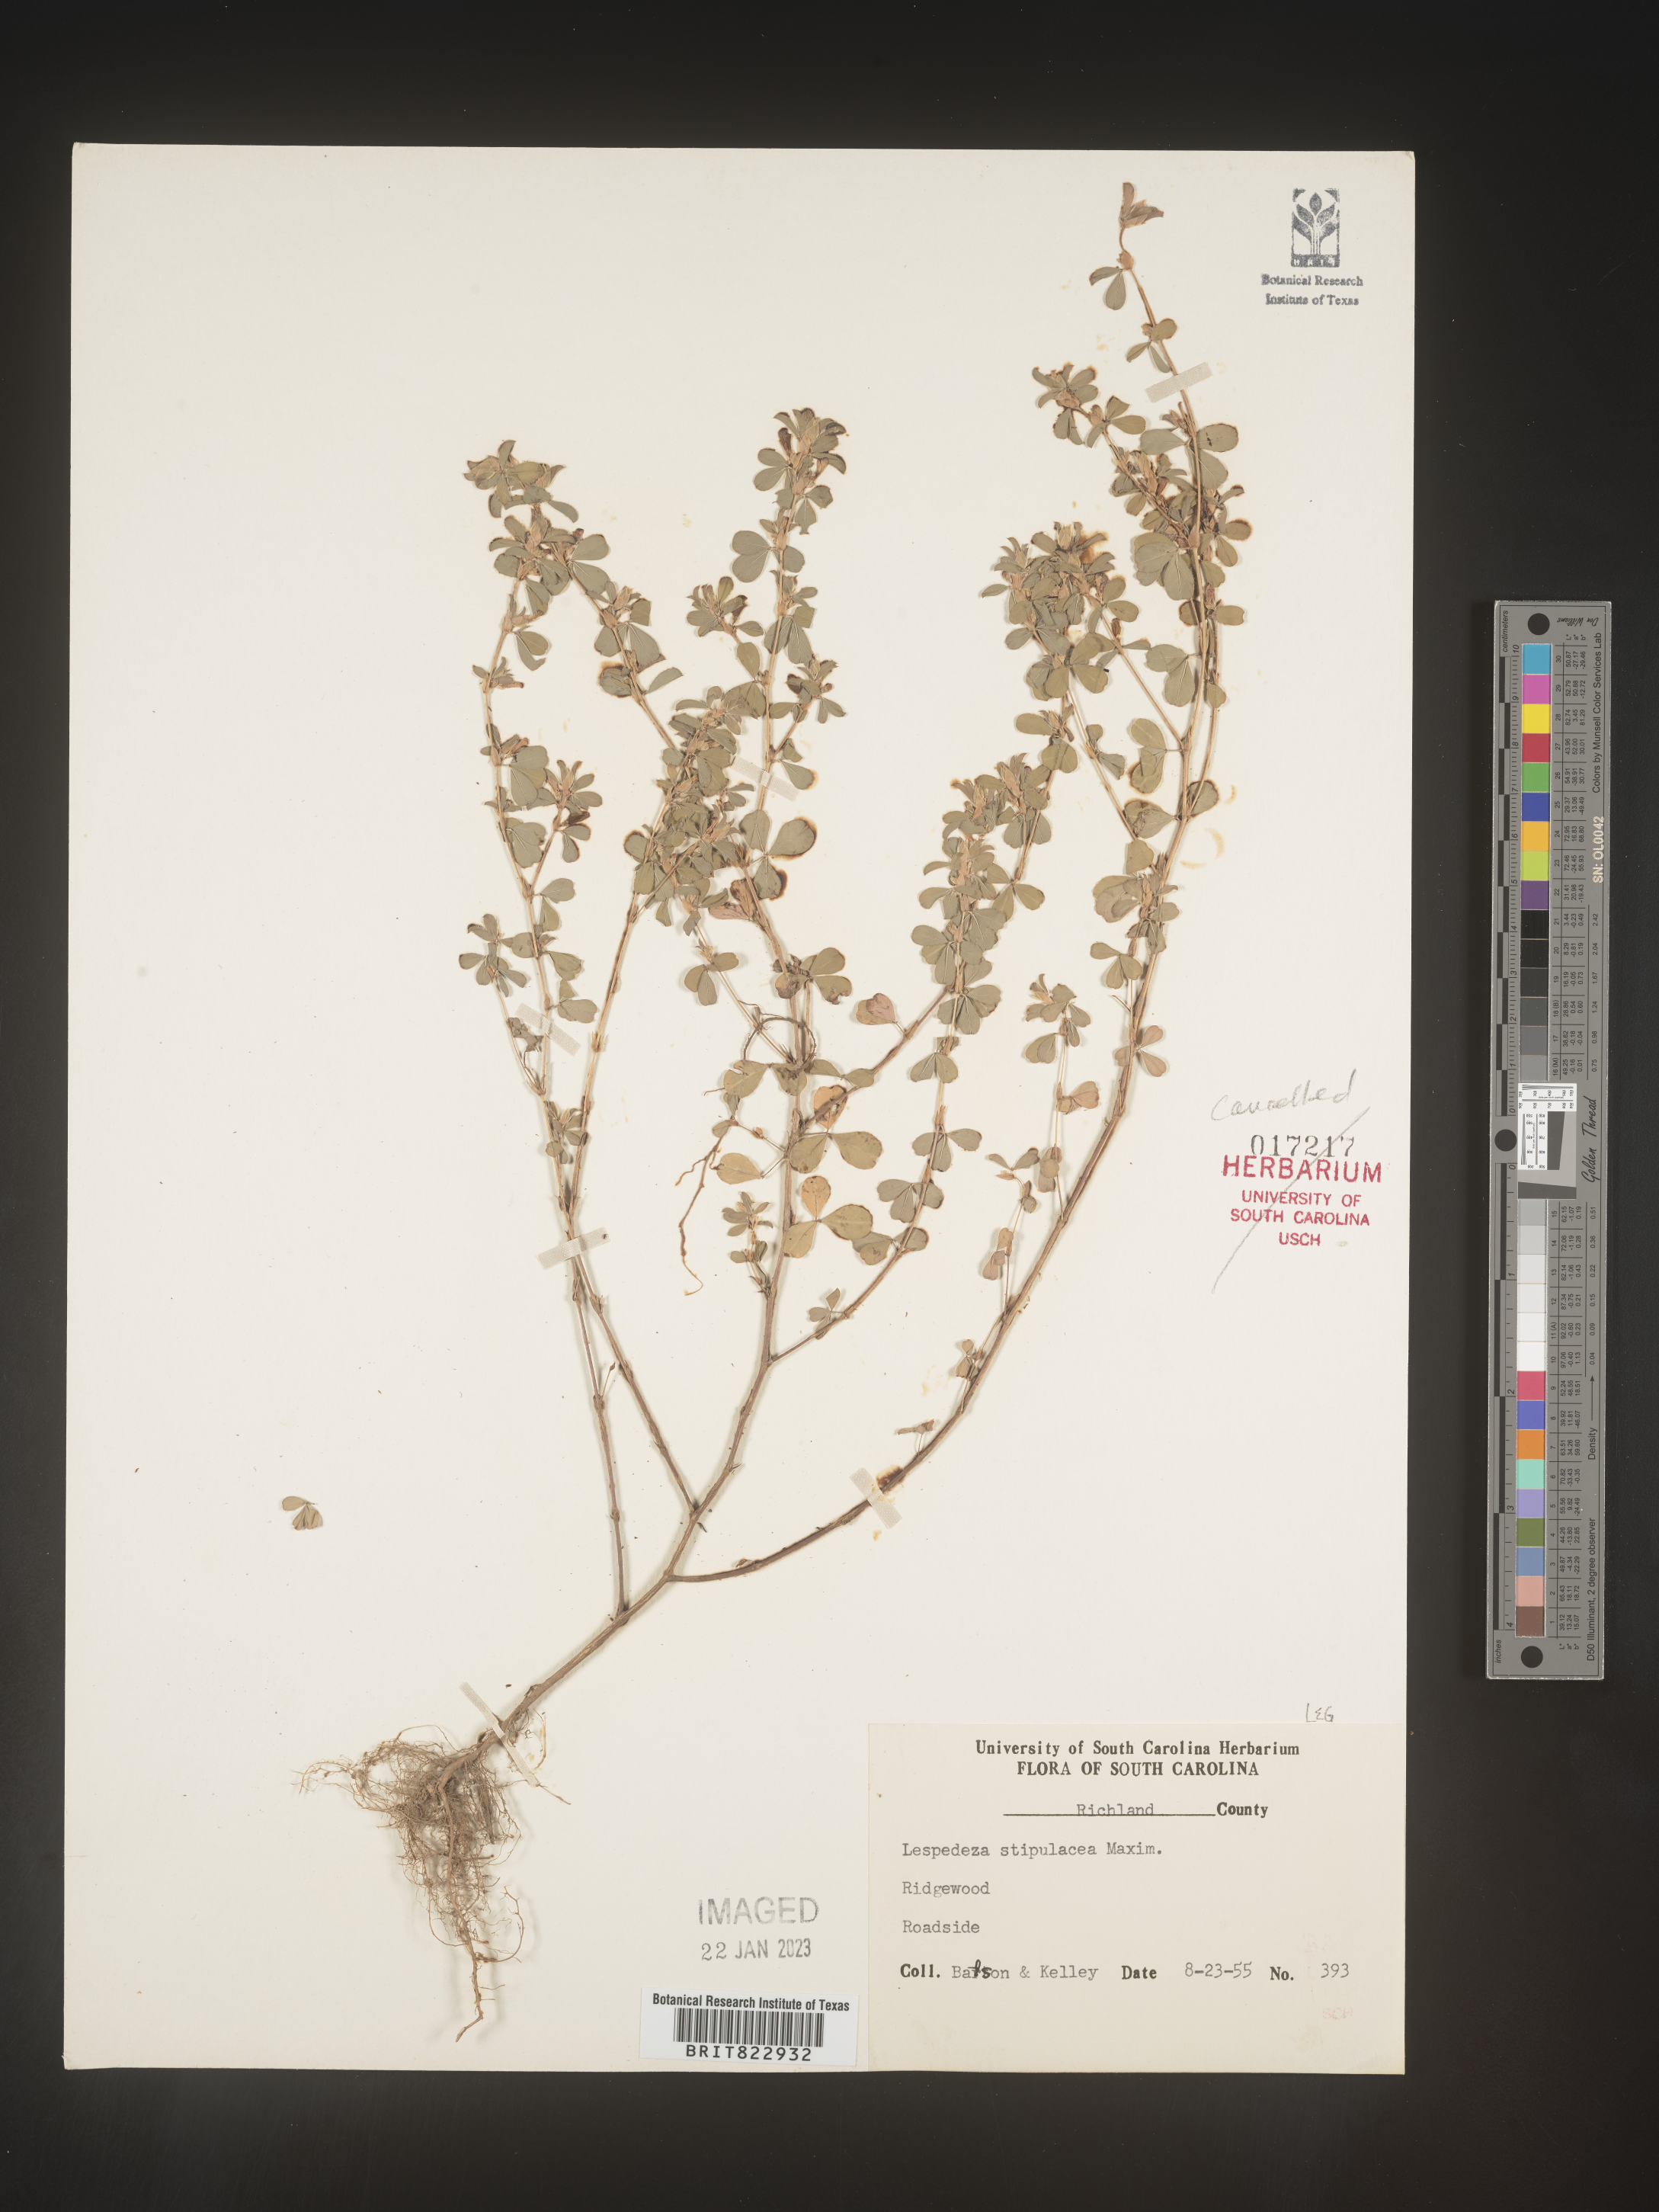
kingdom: Plantae
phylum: Tracheophyta
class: Magnoliopsida
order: Fabales
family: Fabaceae
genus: Lespedeza
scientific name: Lespedeza
